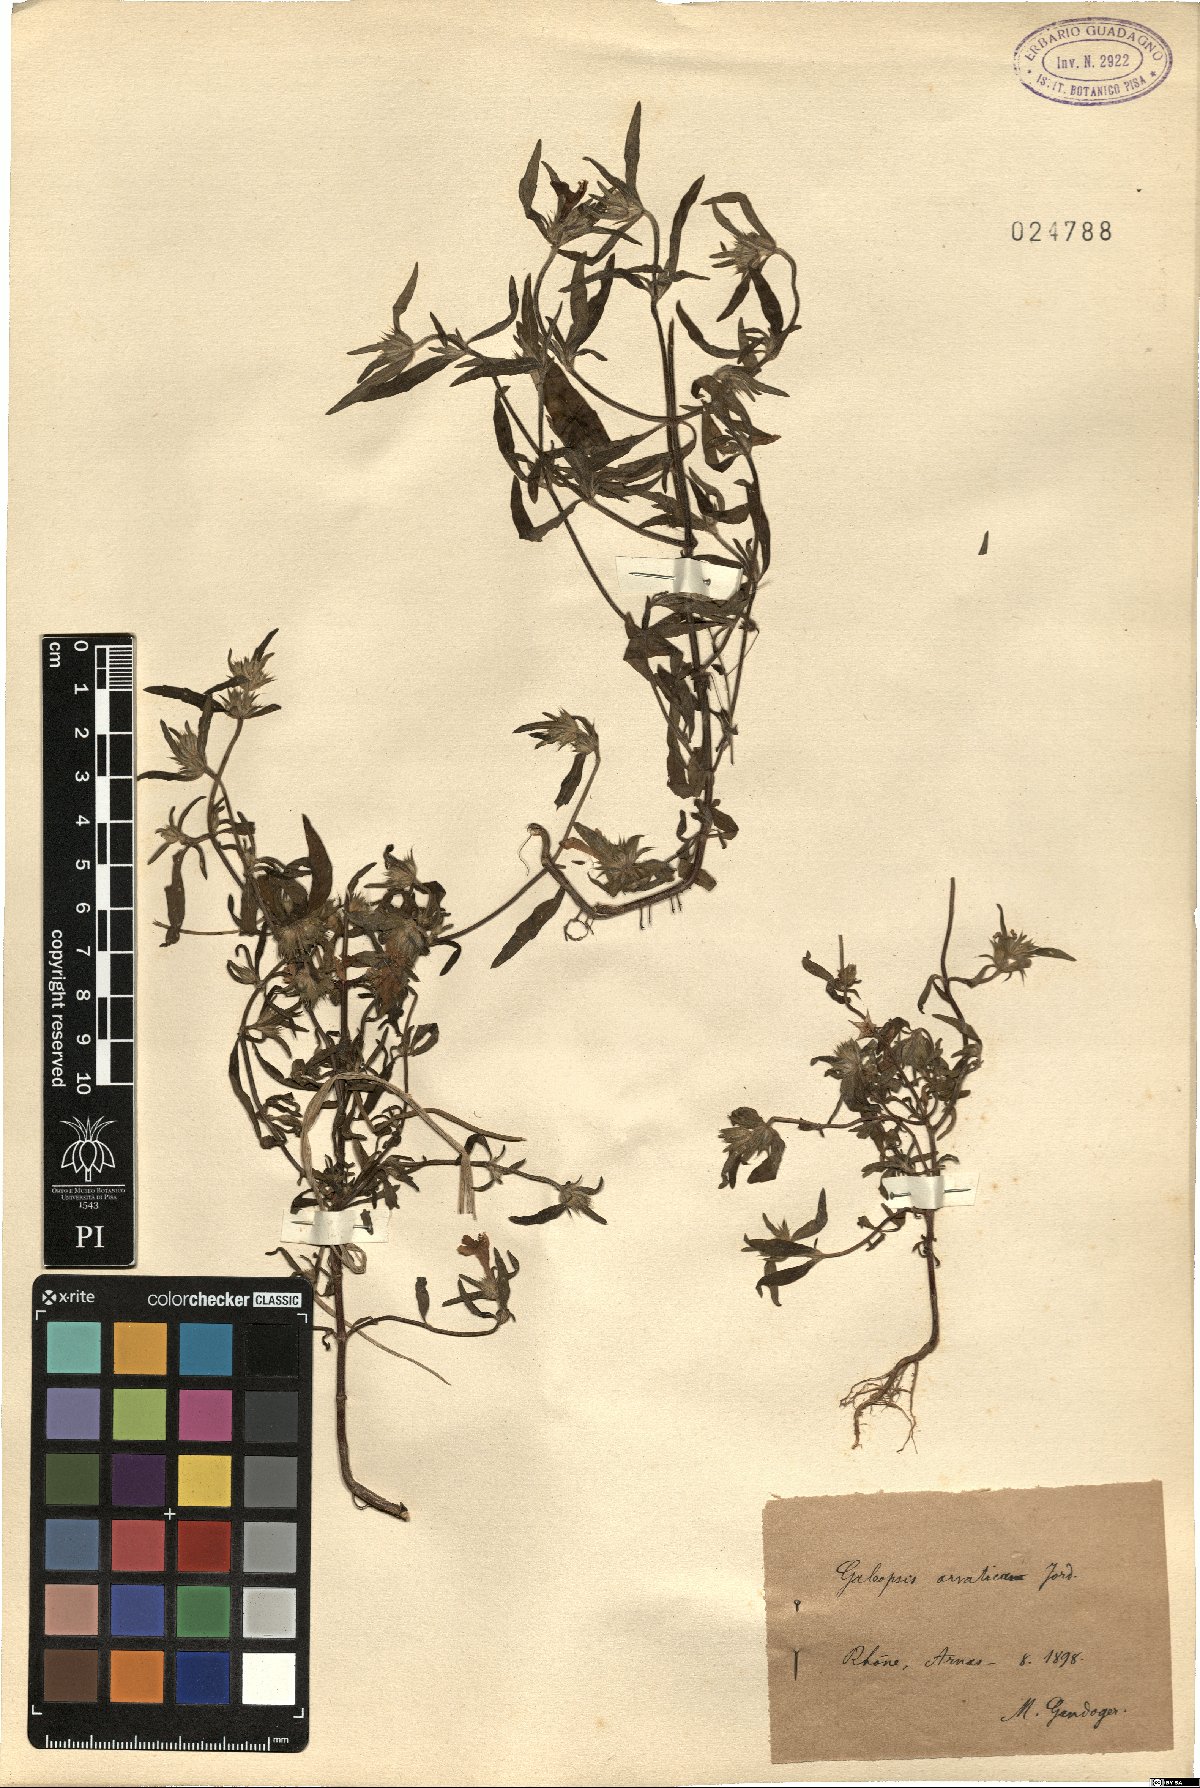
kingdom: Plantae
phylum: Tracheophyta
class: Magnoliopsida
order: Lamiales
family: Lamiaceae
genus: Galeopsis
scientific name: Galeopsis angustifolia
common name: Red hemp-nettle
